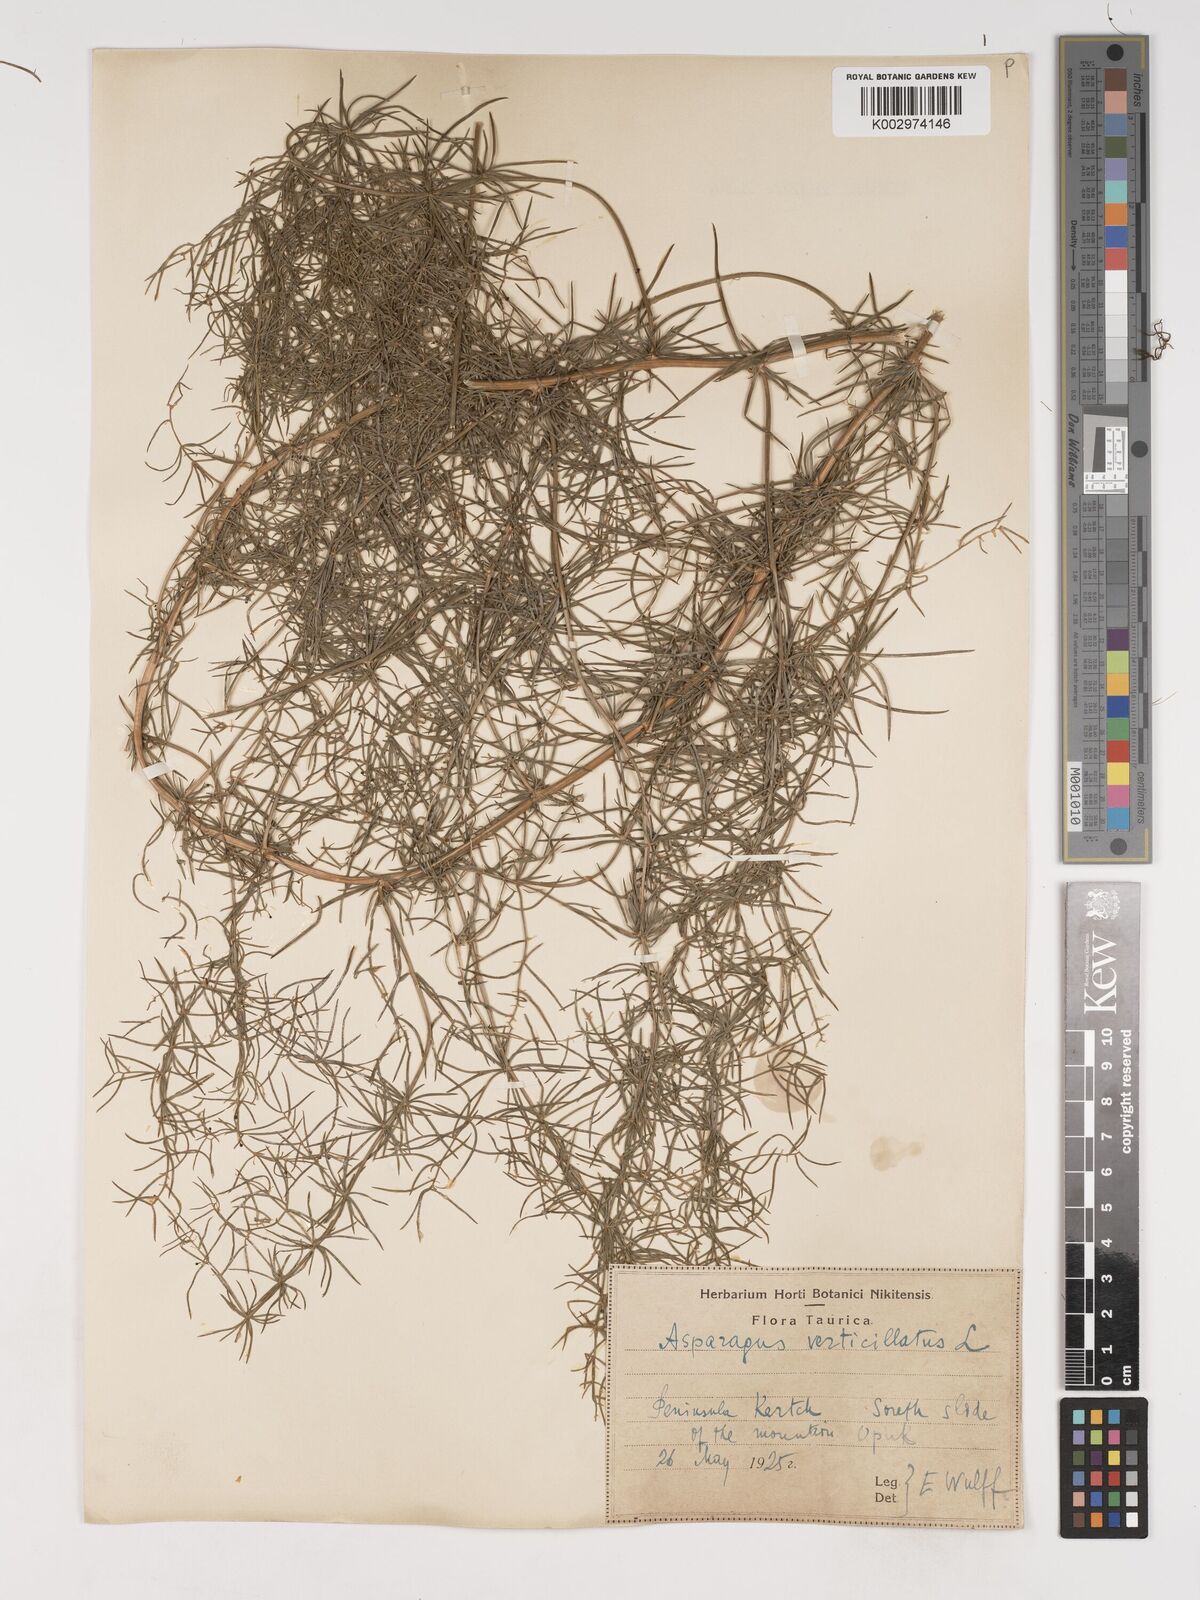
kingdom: Plantae
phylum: Tracheophyta
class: Liliopsida
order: Asparagales
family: Asparagaceae
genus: Asparagus
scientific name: Asparagus verticillatus
